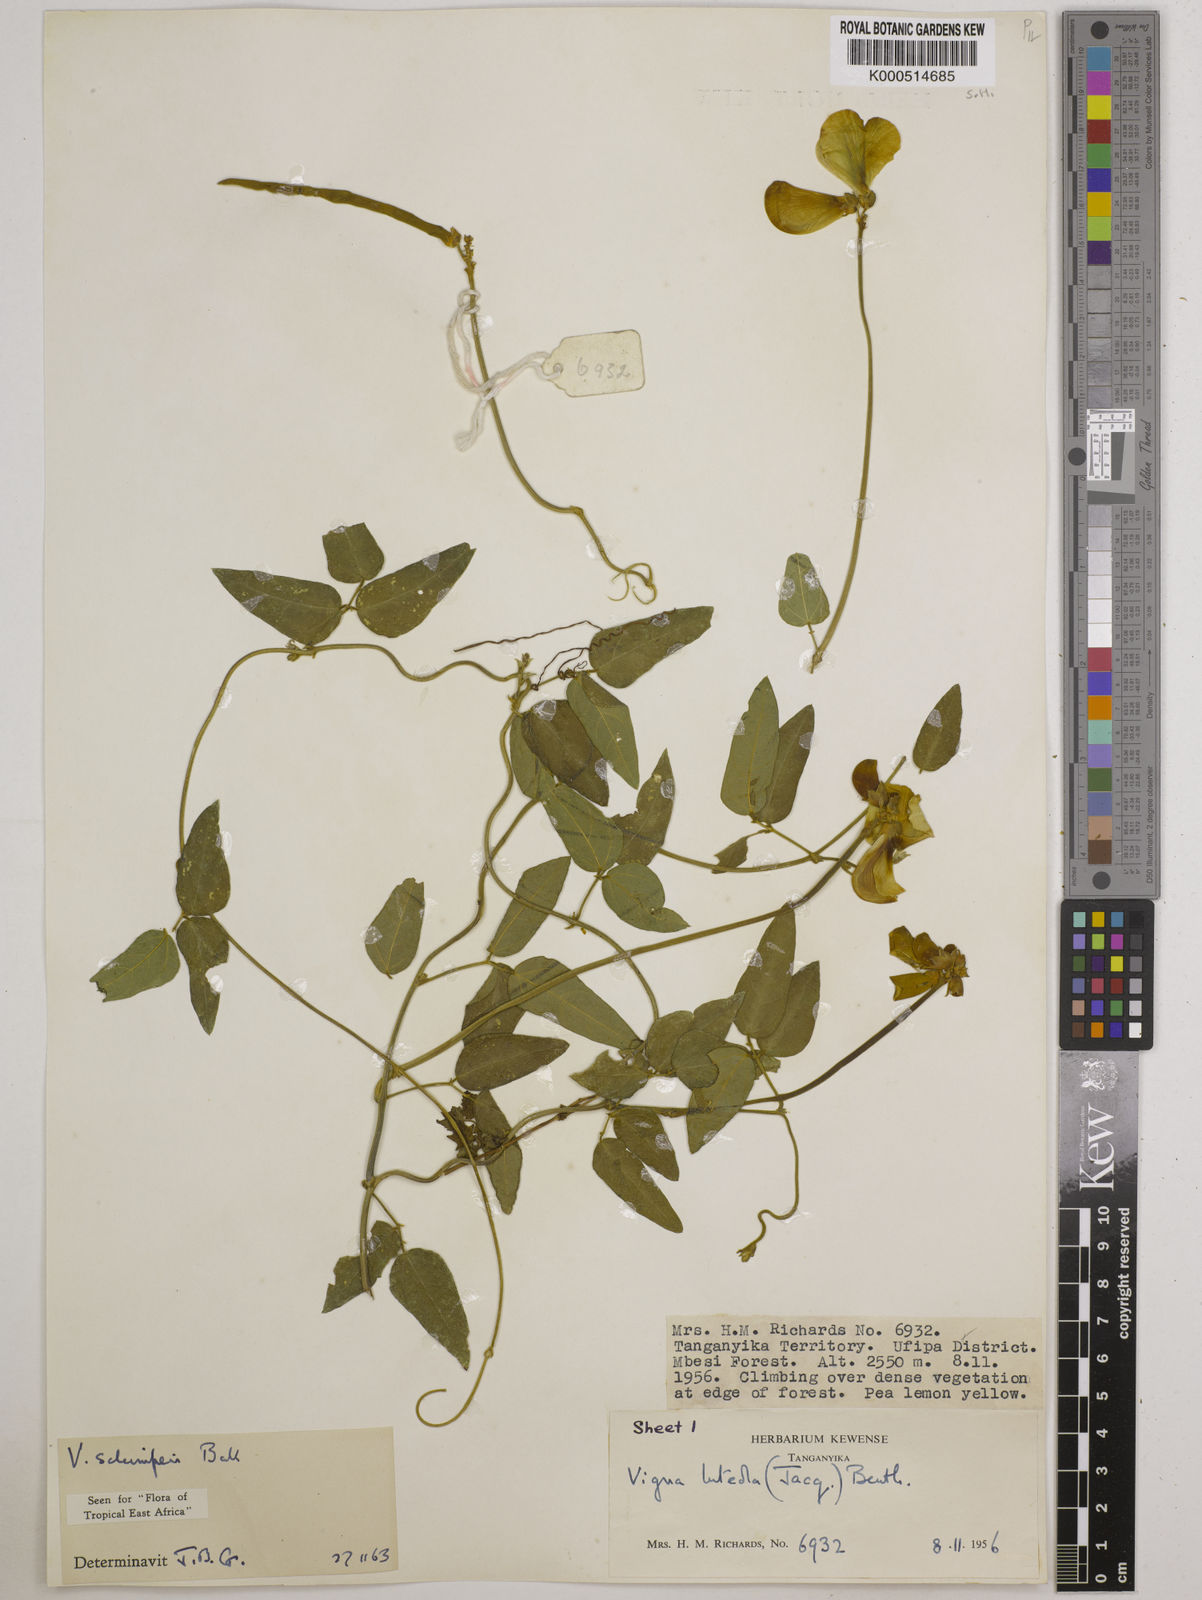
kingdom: Plantae
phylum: Tracheophyta
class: Magnoliopsida
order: Fabales
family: Fabaceae
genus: Vigna
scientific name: Vigna schimperi
